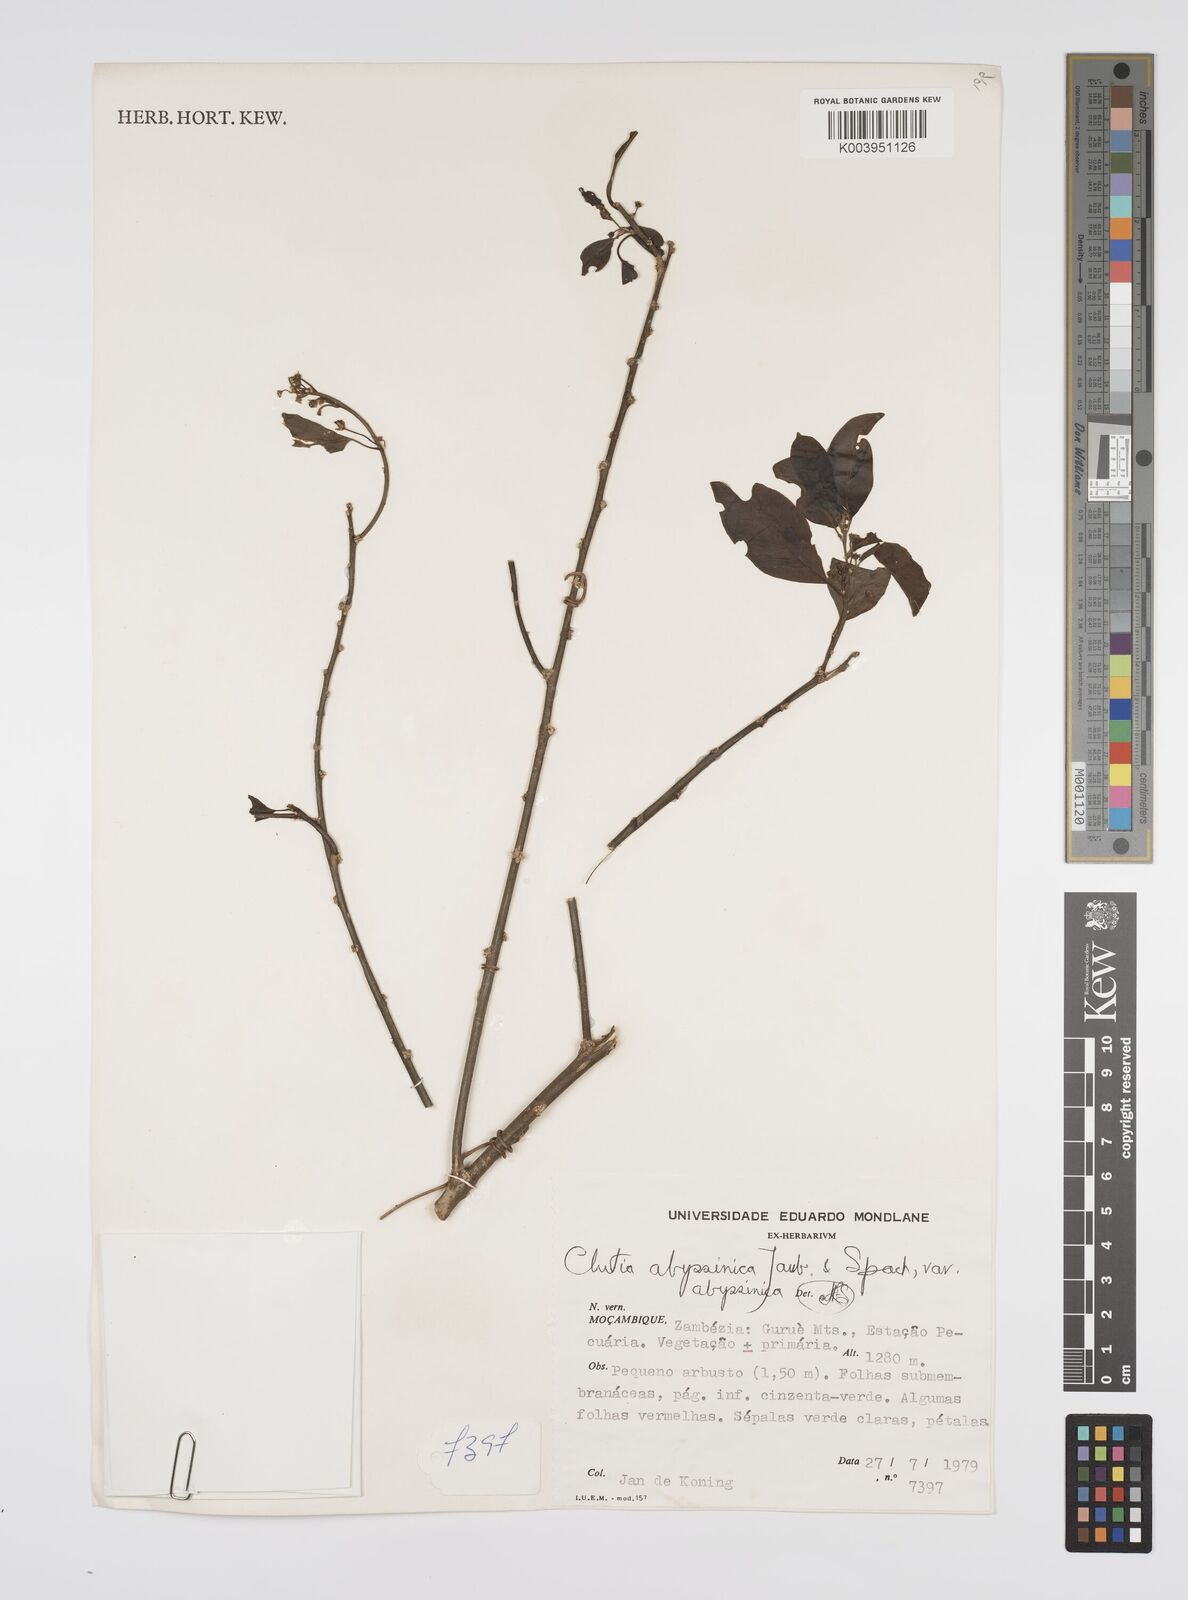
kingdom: Plantae
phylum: Tracheophyta
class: Magnoliopsida
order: Malpighiales
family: Peraceae
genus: Clutia
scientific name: Clutia abyssinica
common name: Large lightning bush
